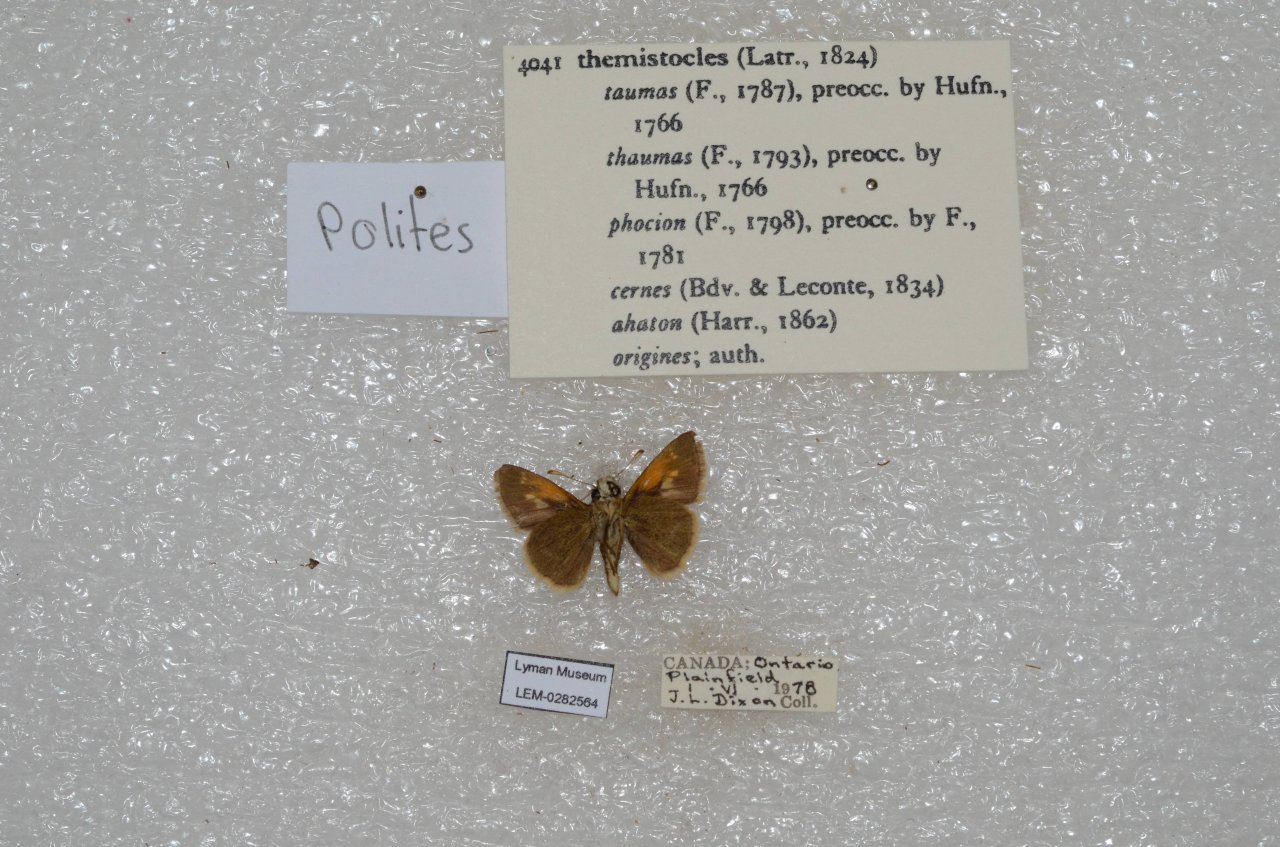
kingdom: Animalia
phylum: Arthropoda
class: Insecta
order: Lepidoptera
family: Hesperiidae
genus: Polites
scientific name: Polites themistocles
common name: Tawny-edged Skipper
